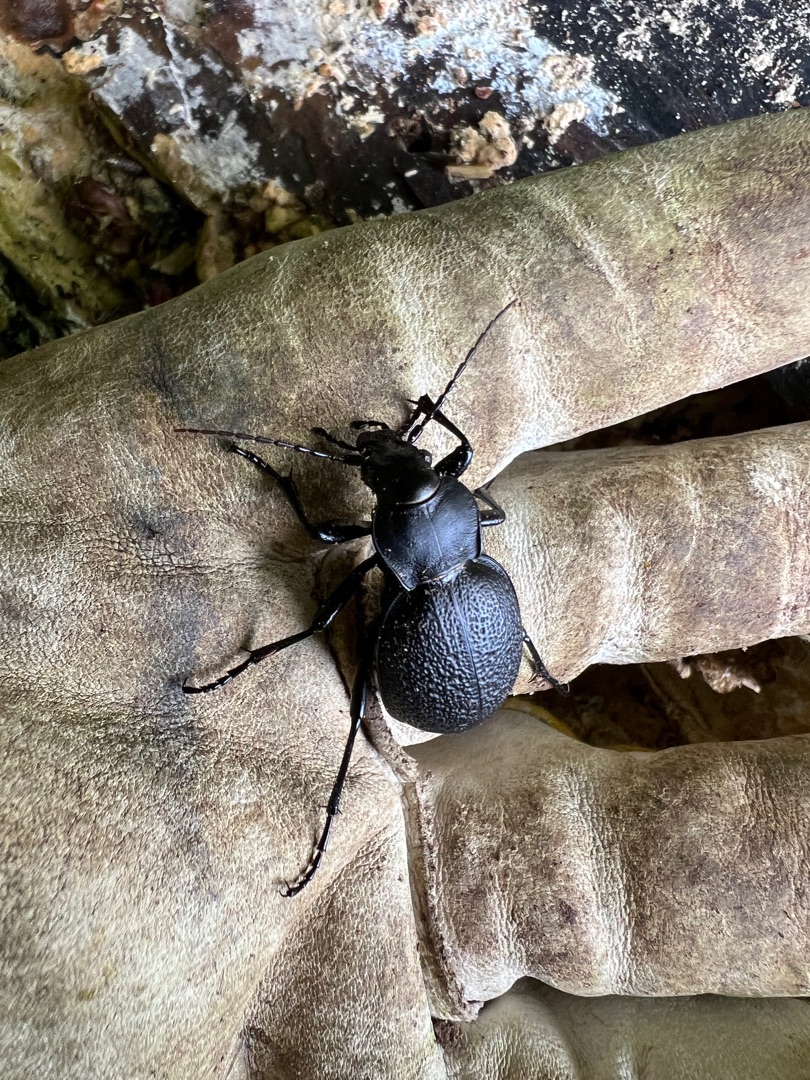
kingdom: Animalia
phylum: Arthropoda
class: Insecta
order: Coleoptera
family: Carabidae
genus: Carabus
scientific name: Carabus coriaceus
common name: Læderløber
